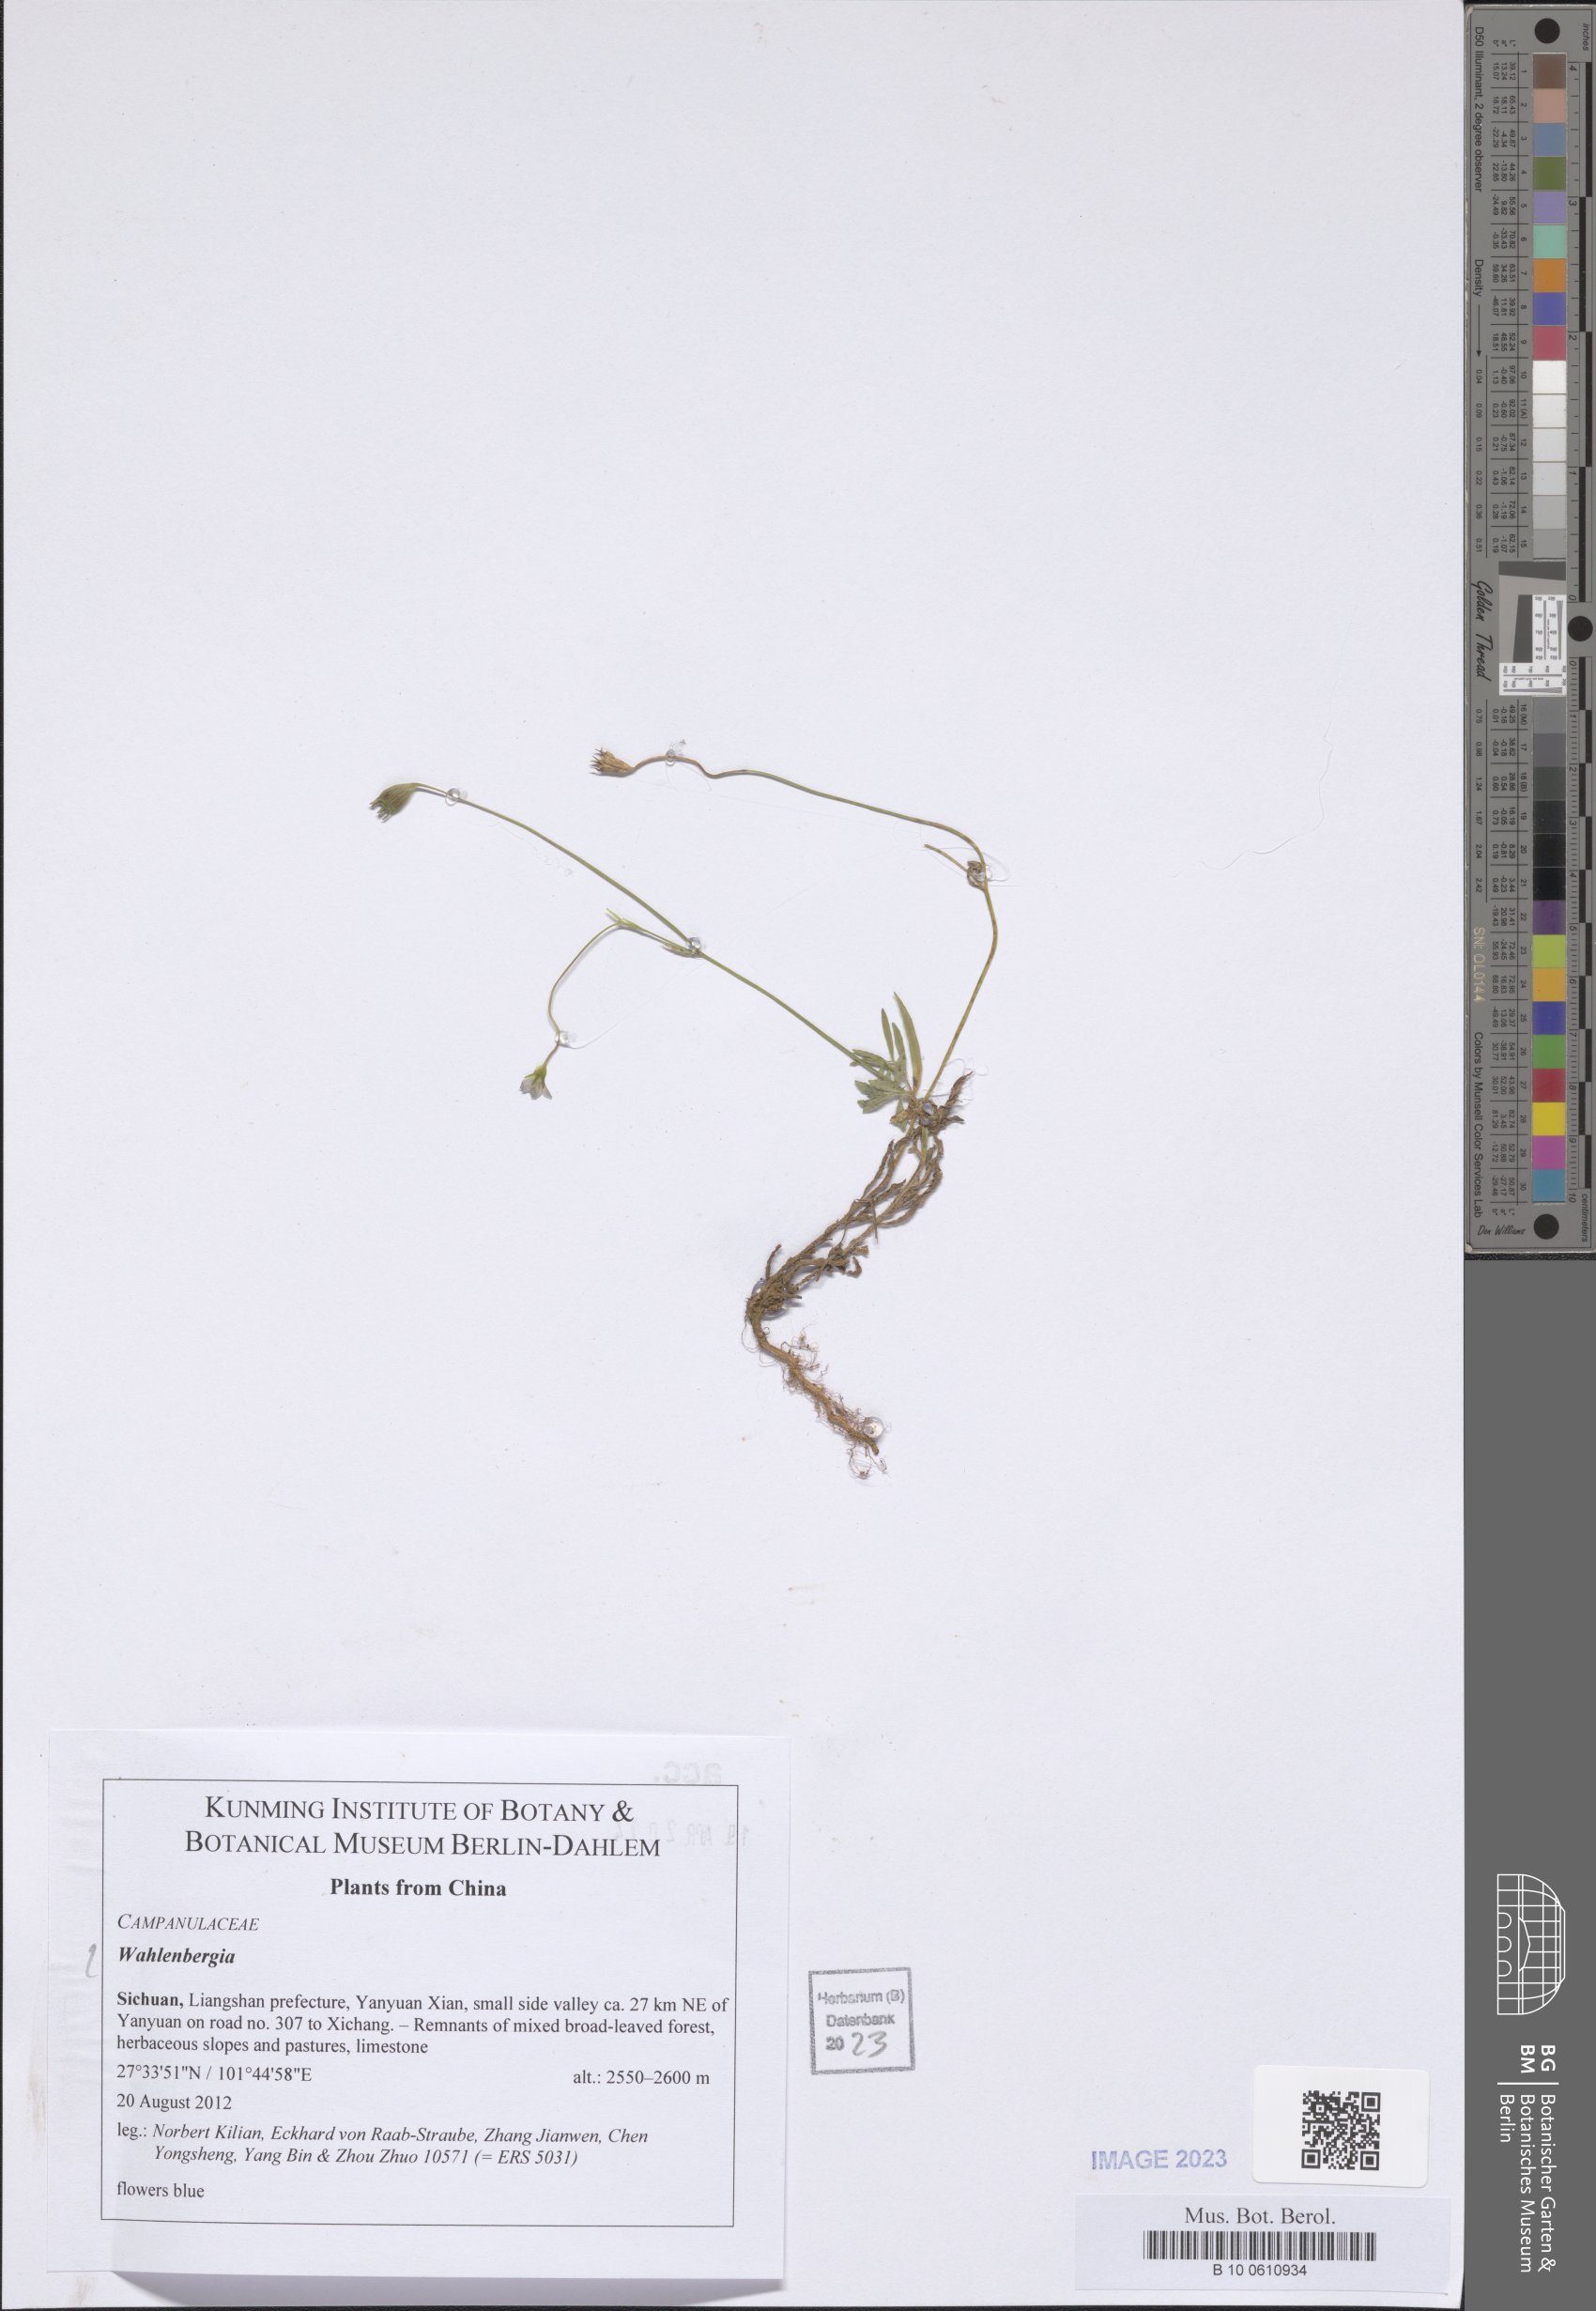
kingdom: Plantae
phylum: Tracheophyta
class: Magnoliopsida
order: Asterales
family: Campanulaceae
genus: Wahlenbergia
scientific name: Wahlenbergia
